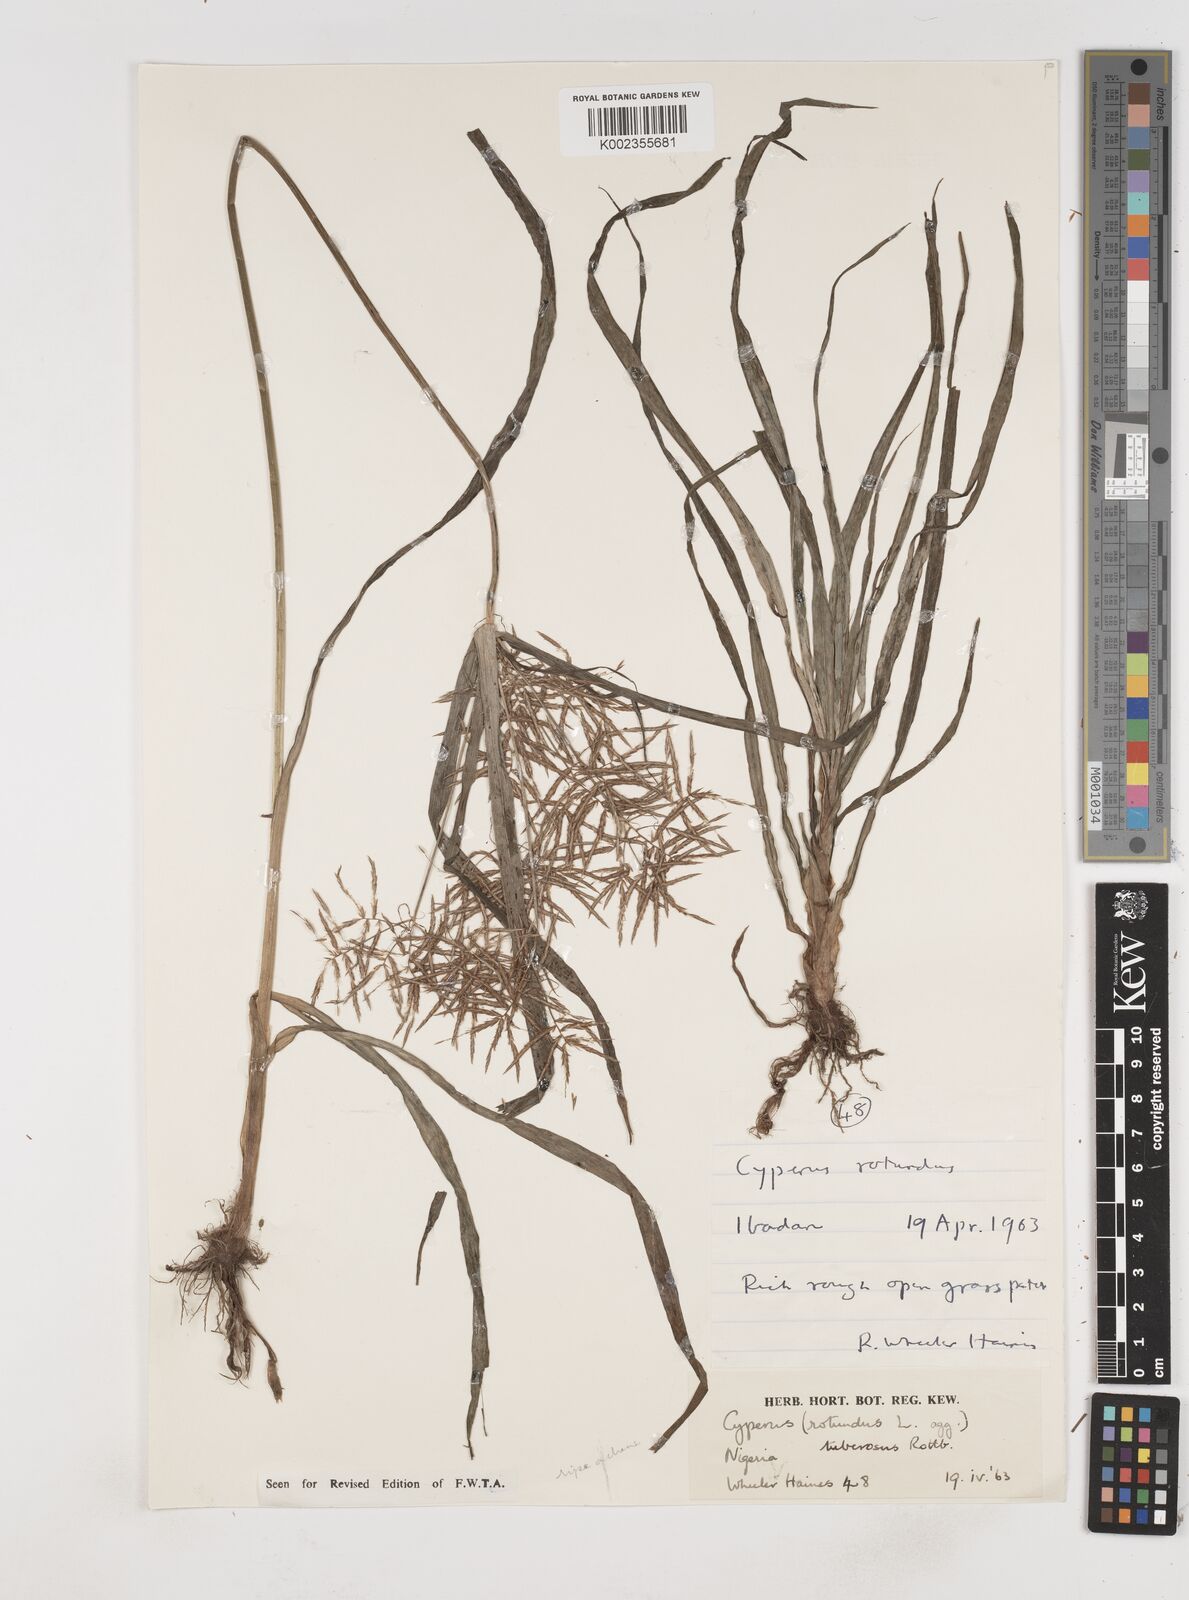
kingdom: Plantae
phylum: Tracheophyta
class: Liliopsida
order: Poales
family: Cyperaceae
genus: Cyperus
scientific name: Cyperus tuberosus
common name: Nut grass
